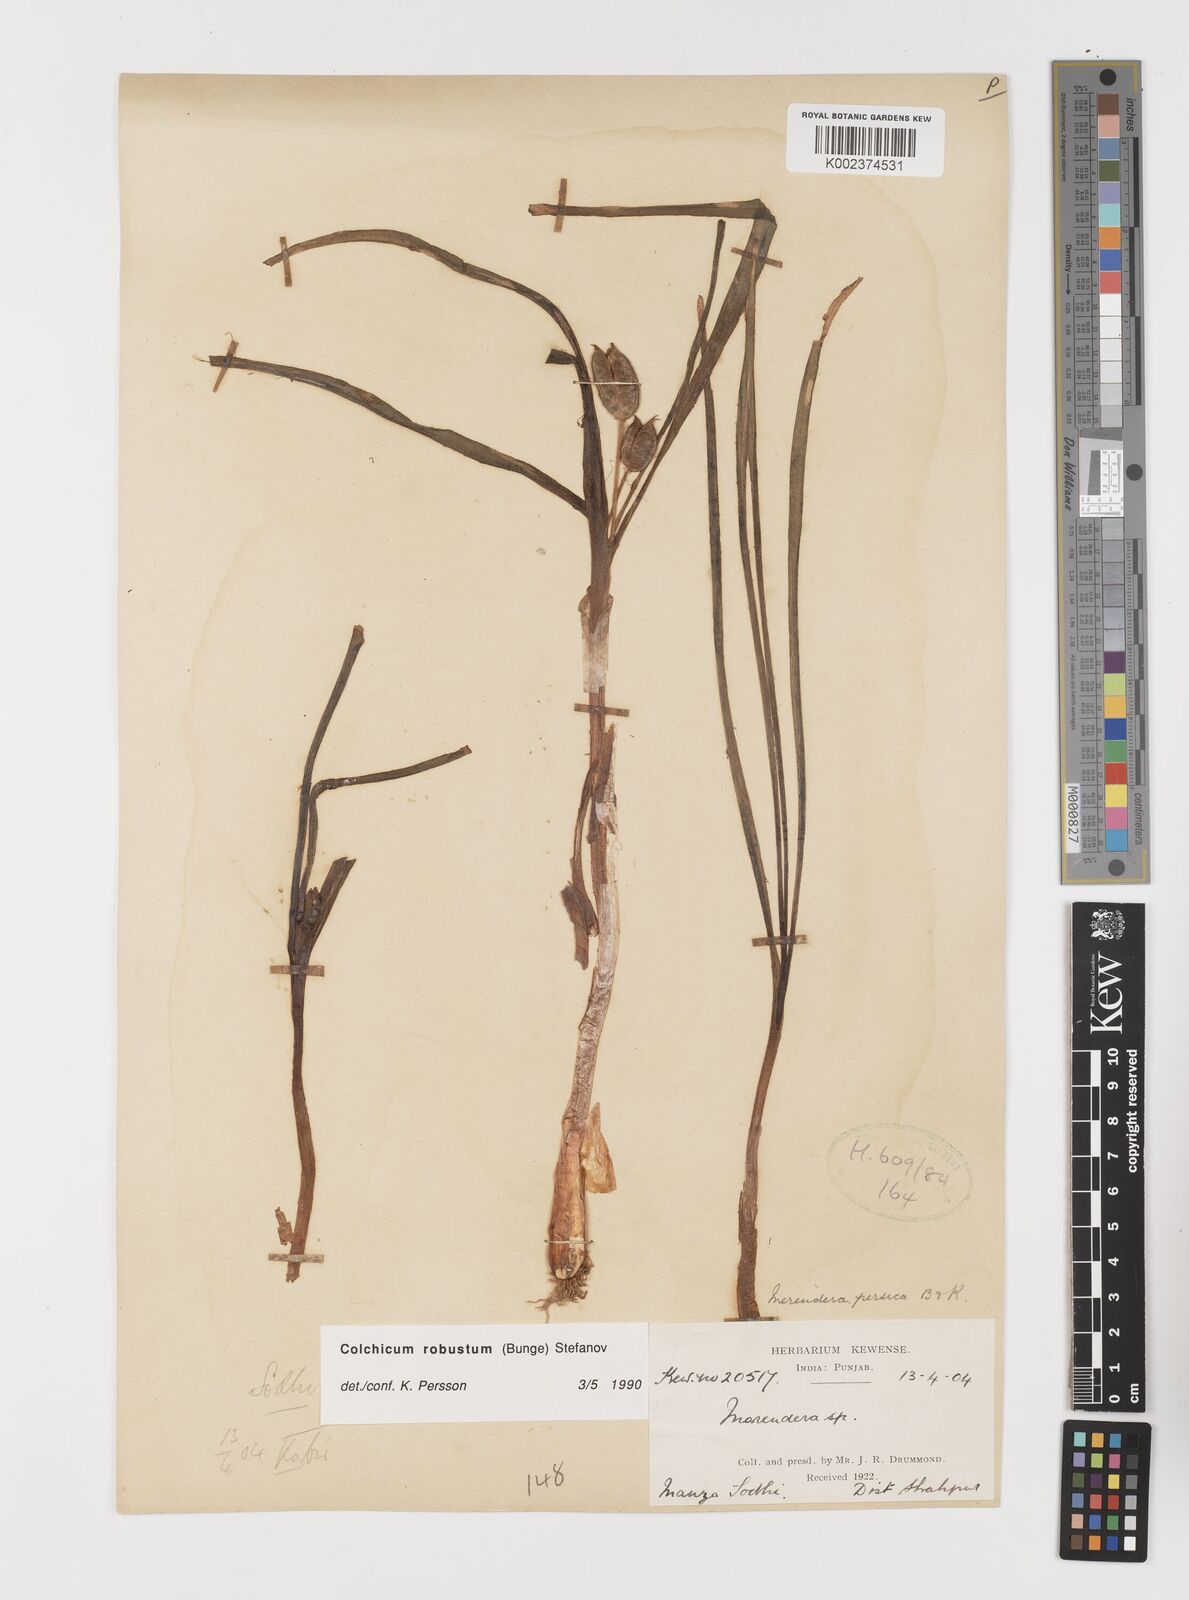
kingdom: Plantae
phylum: Tracheophyta
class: Liliopsida
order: Liliales
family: Colchicaceae
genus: Colchicum
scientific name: Colchicum robustum
